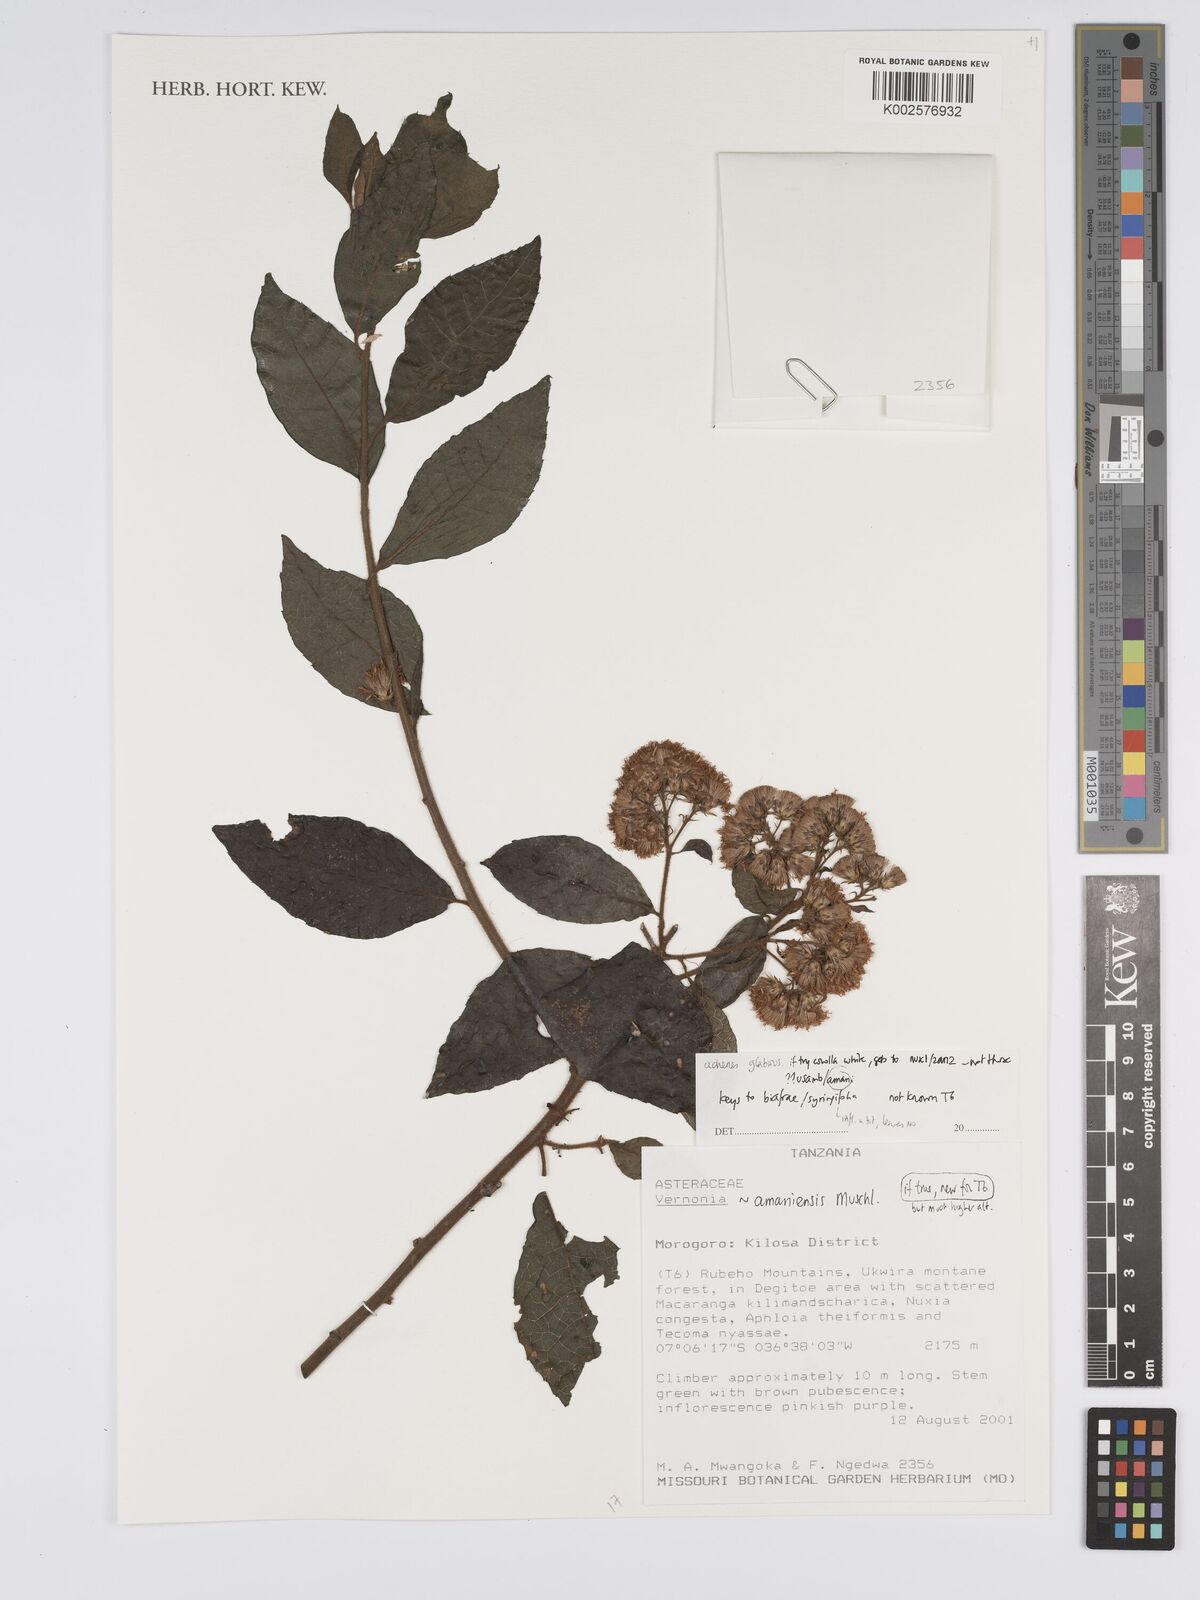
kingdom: Plantae
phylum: Tracheophyta
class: Magnoliopsida
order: Asterales
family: Asteraceae
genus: Jeffreycia
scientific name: Jeffreycia amaniensis
